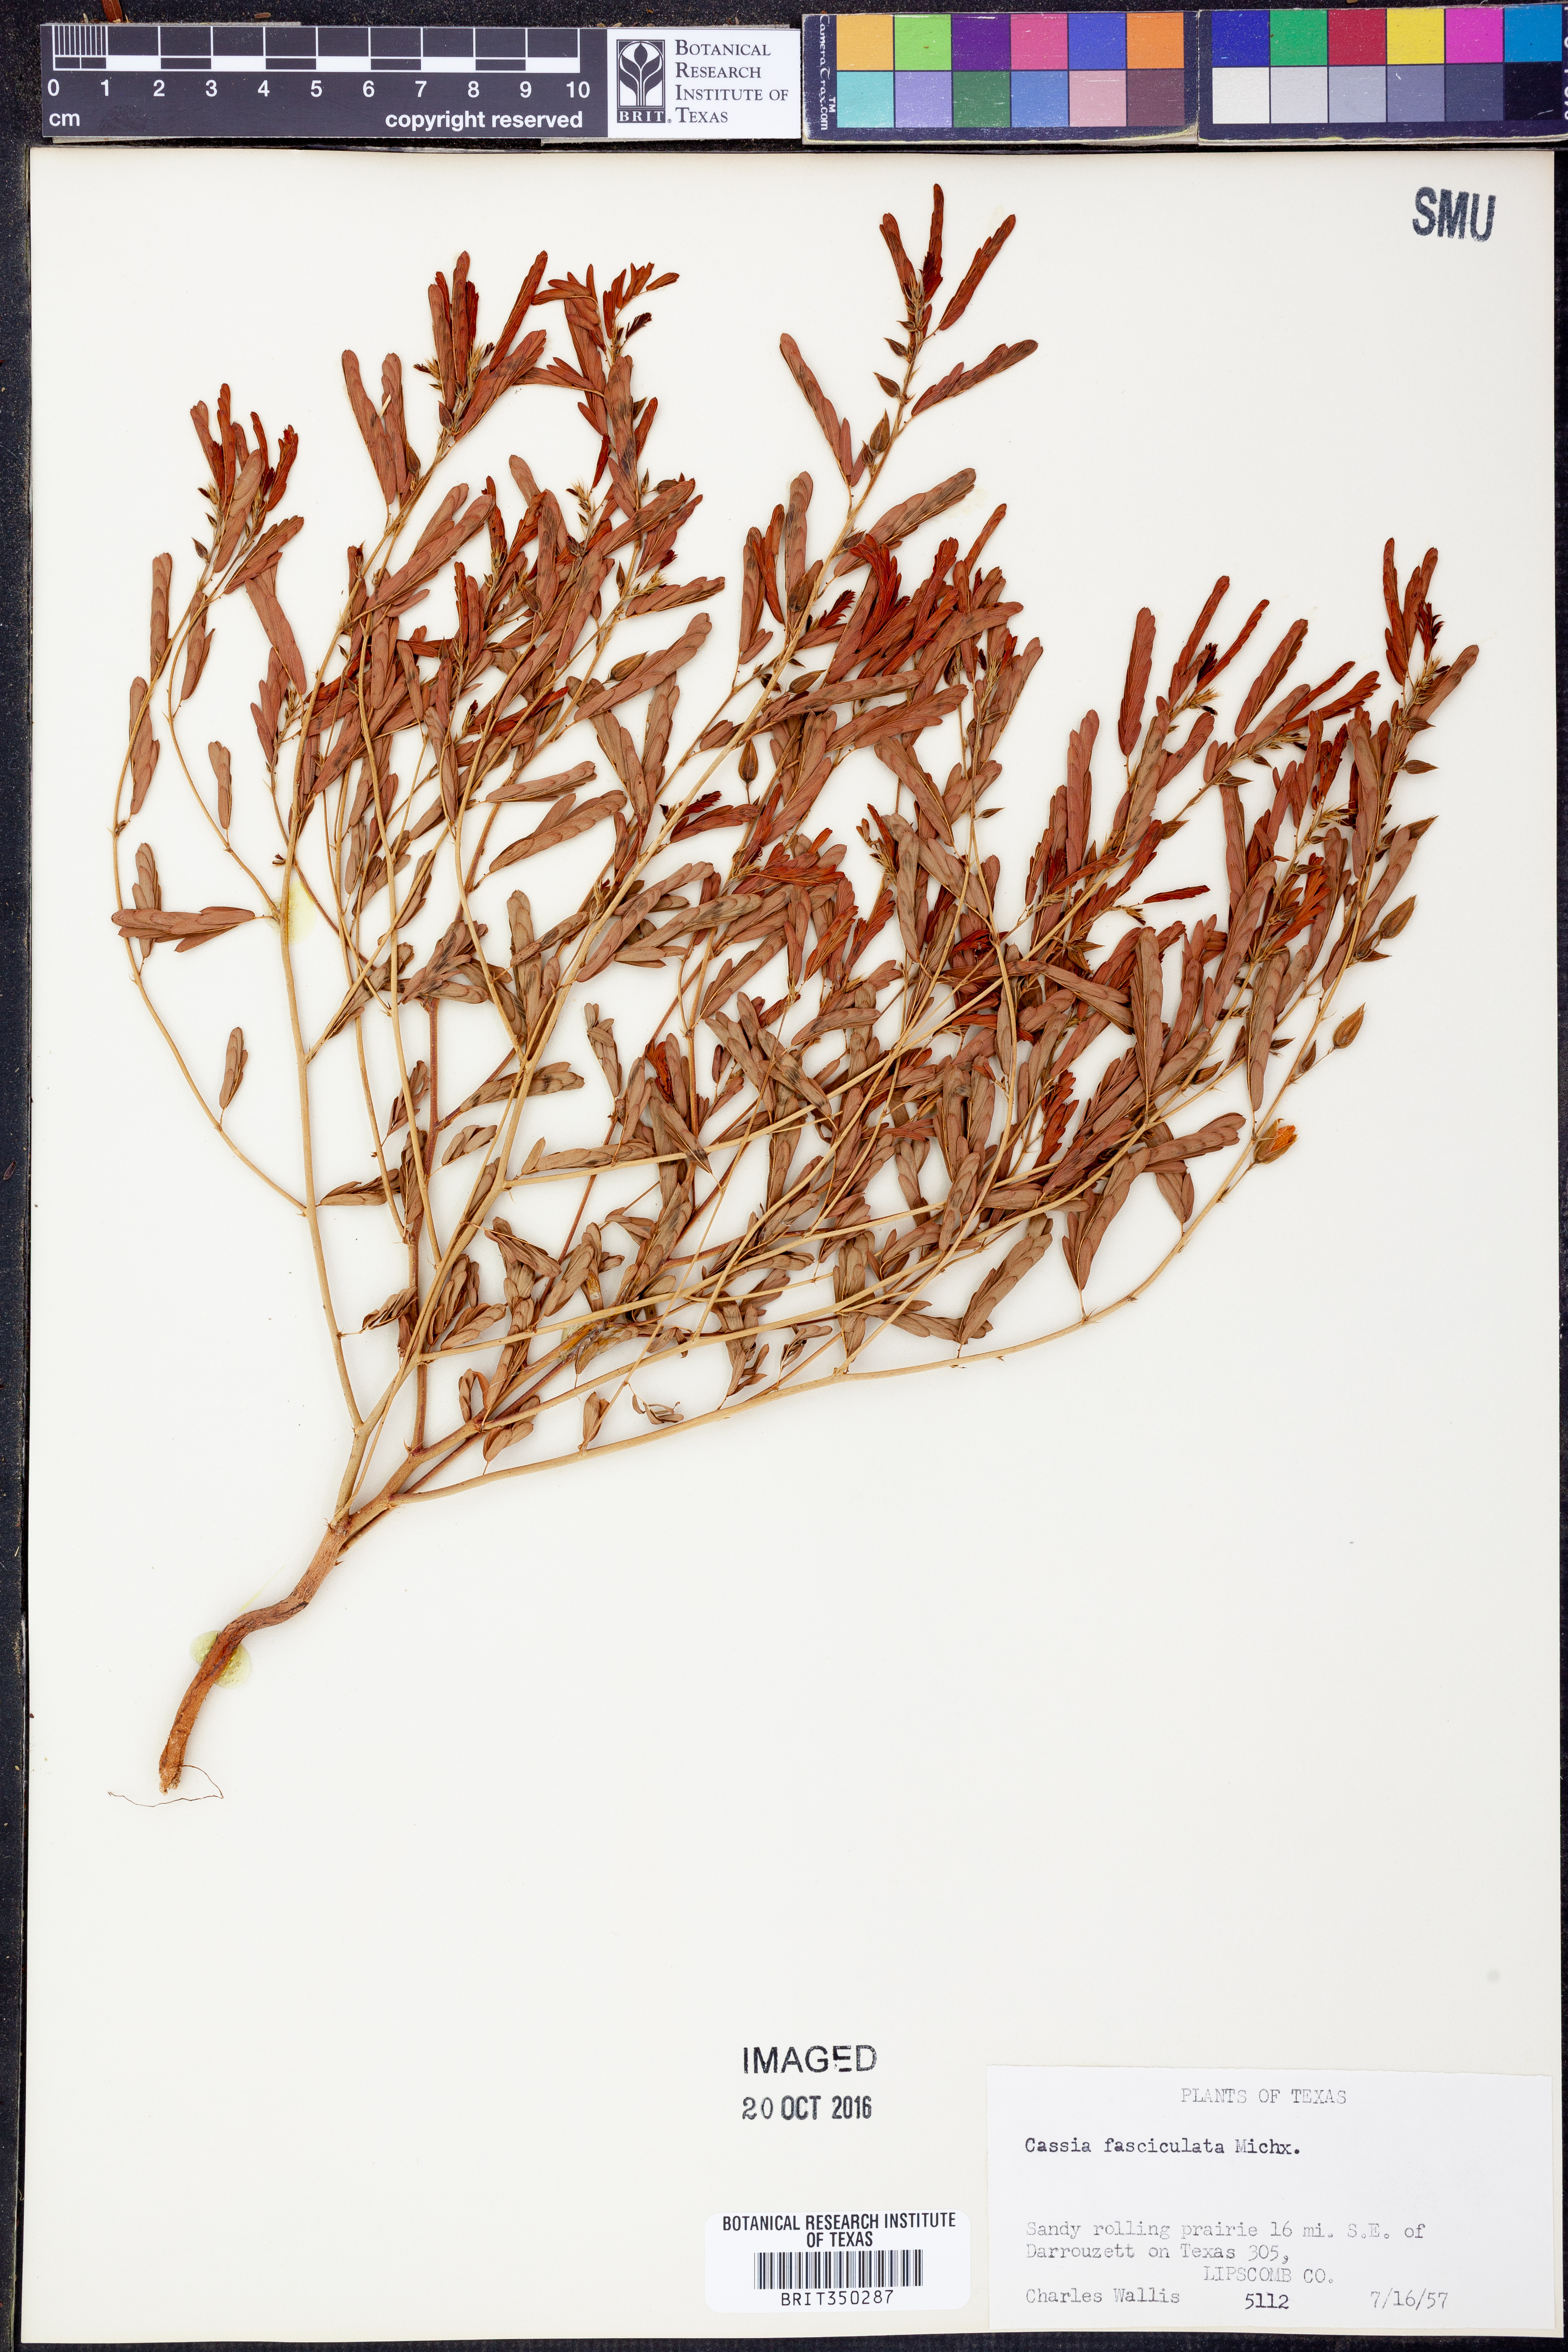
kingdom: Plantae
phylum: Tracheophyta
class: Magnoliopsida
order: Fabales
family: Fabaceae
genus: Chamaecrista
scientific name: Chamaecrista fasciculata
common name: Golden cassia
